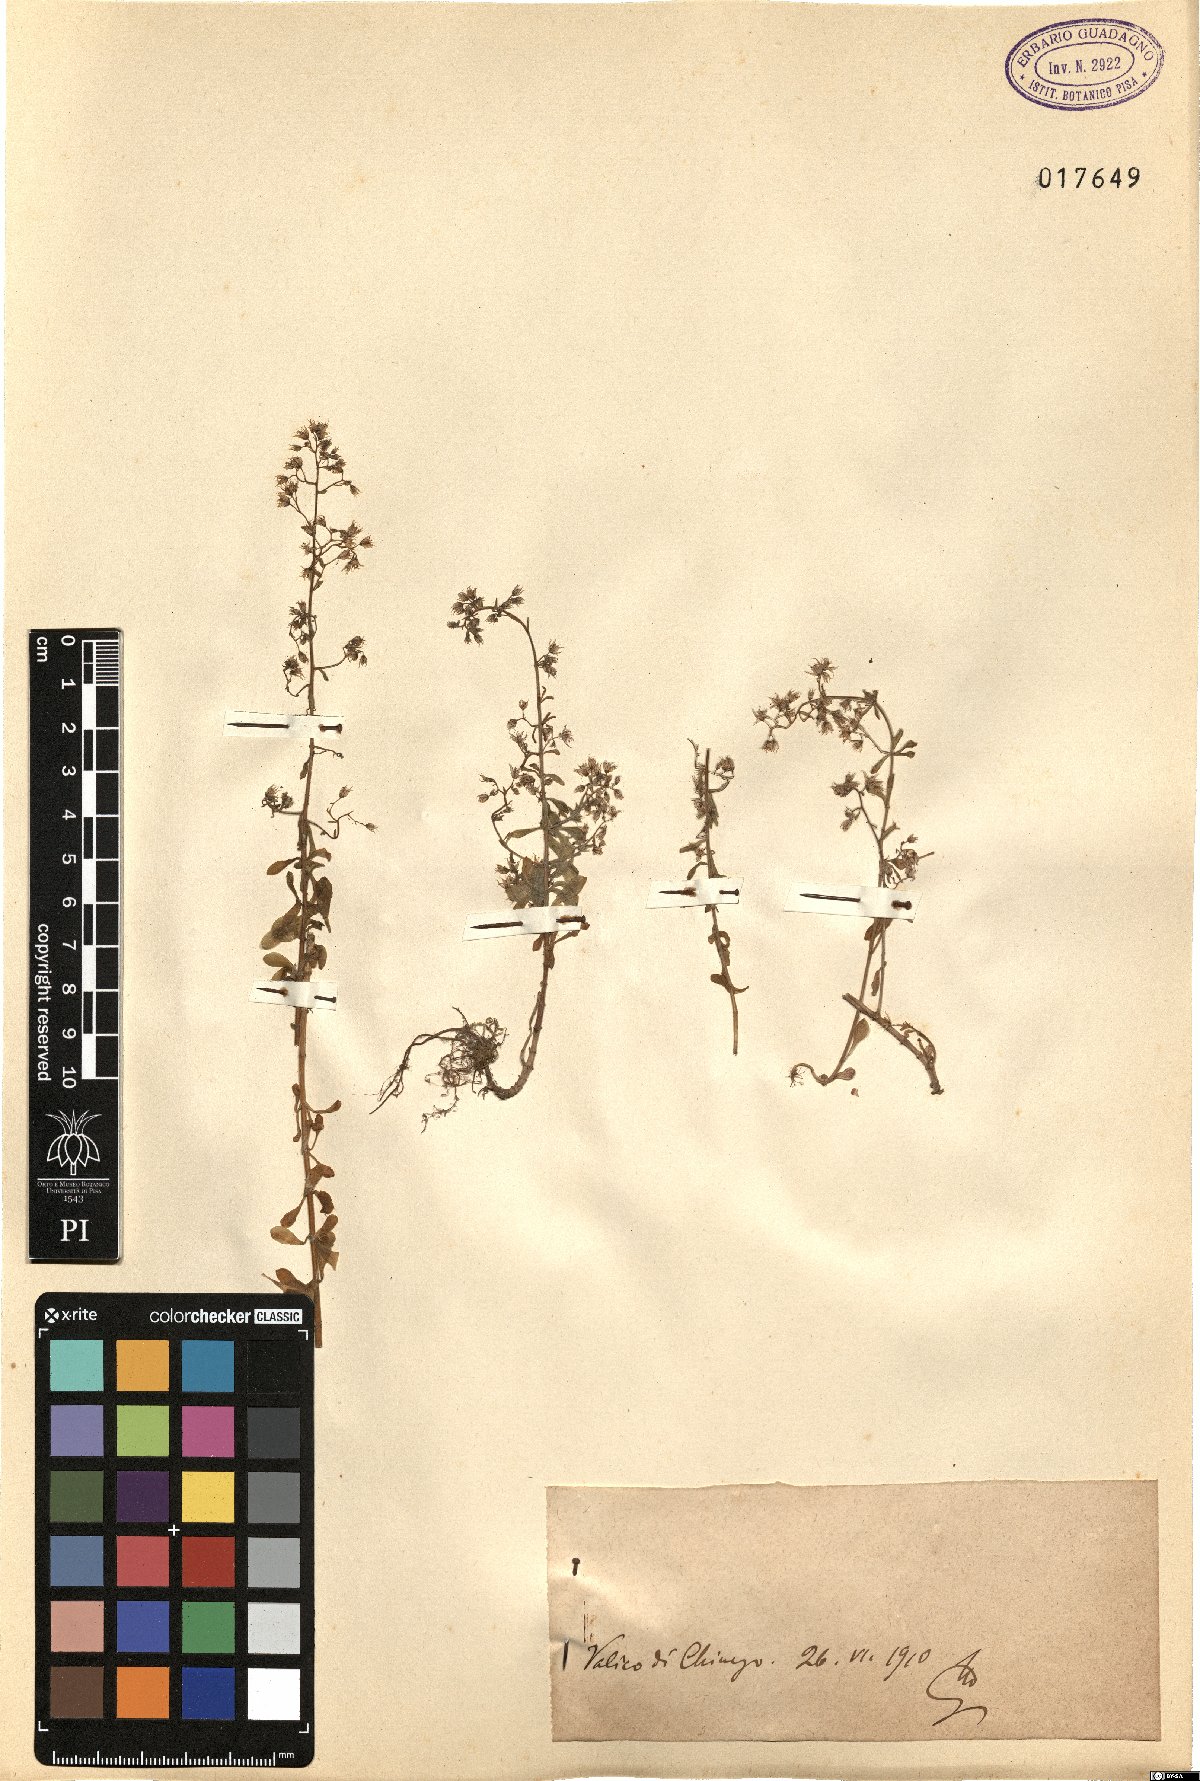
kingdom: Plantae
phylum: Tracheophyta
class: Magnoliopsida
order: Saxifragales
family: Crassulaceae
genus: Sedum
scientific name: Sedum
